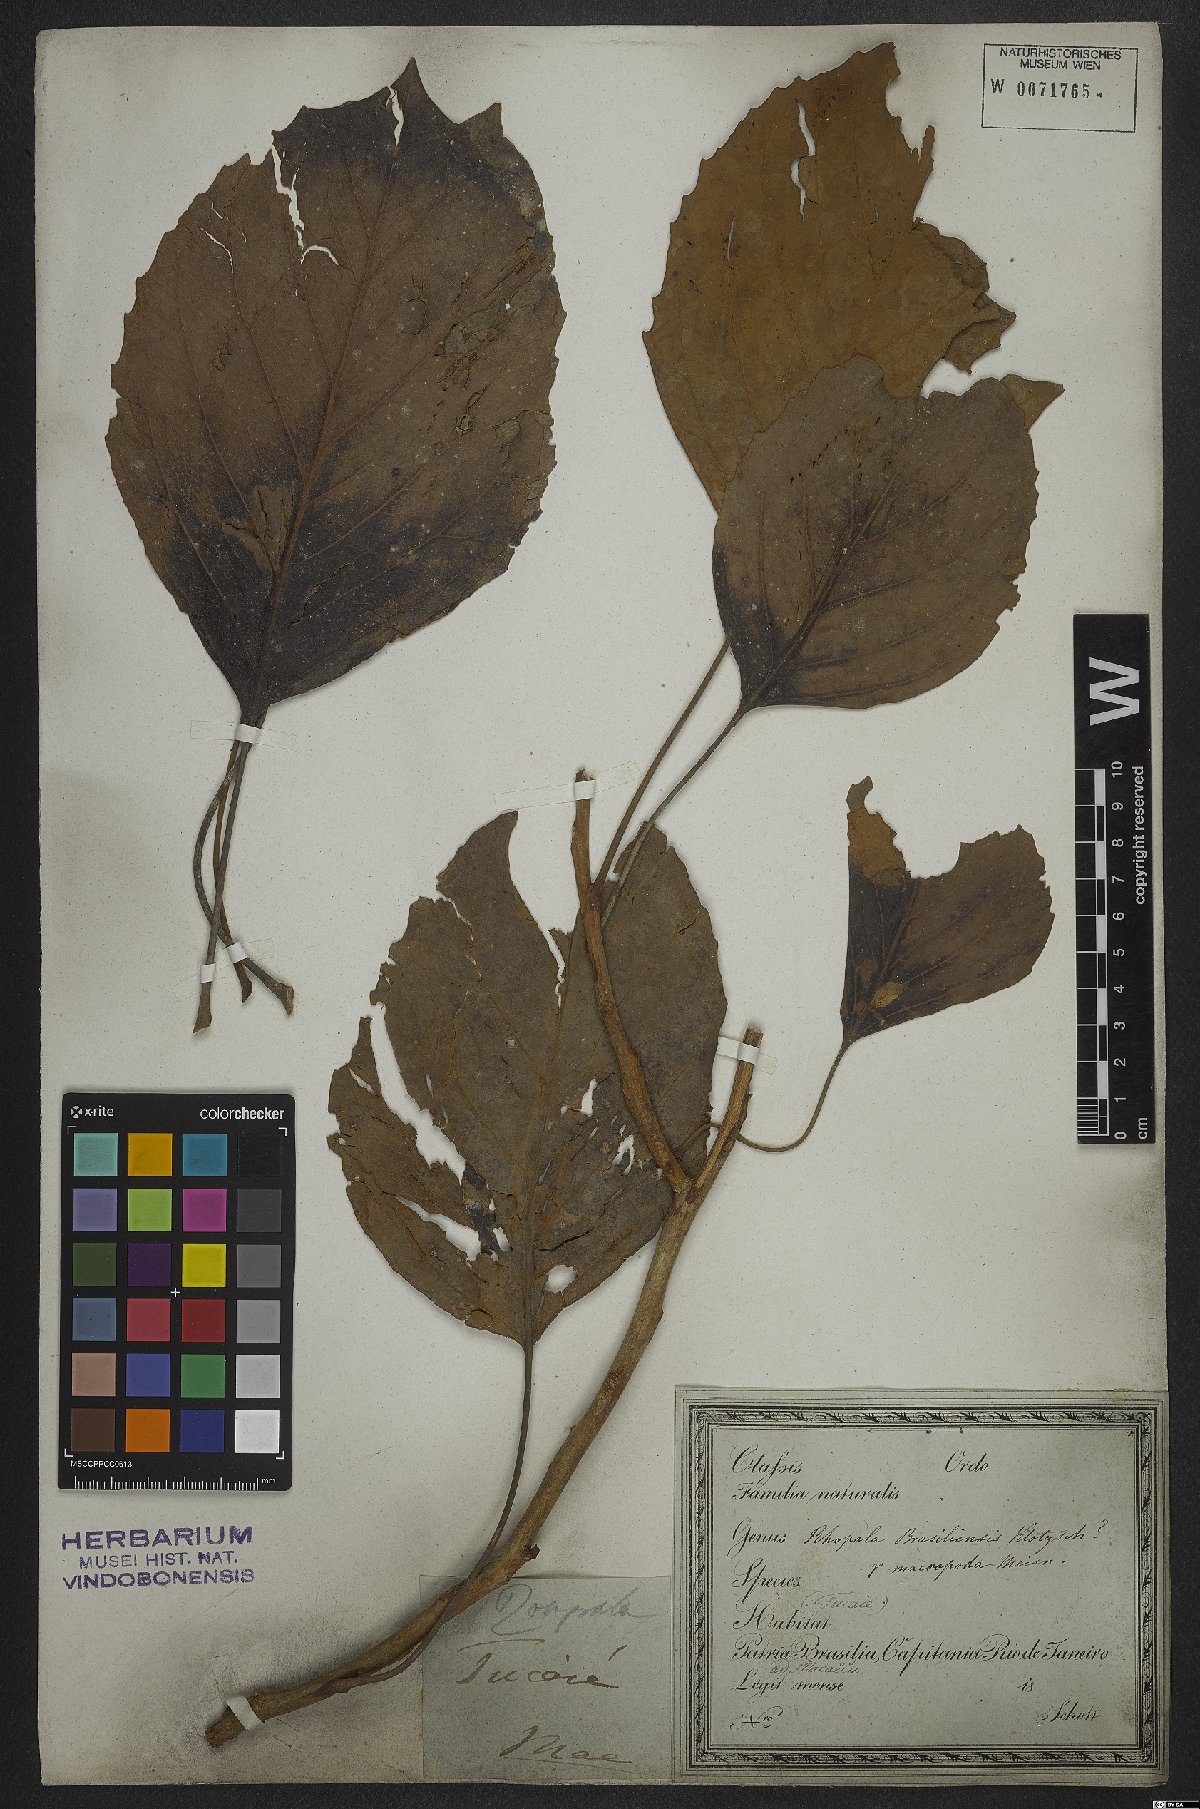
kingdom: Plantae
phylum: Tracheophyta
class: Magnoliopsida
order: Proteales
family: Proteaceae
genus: Roupala
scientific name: Roupala montana
